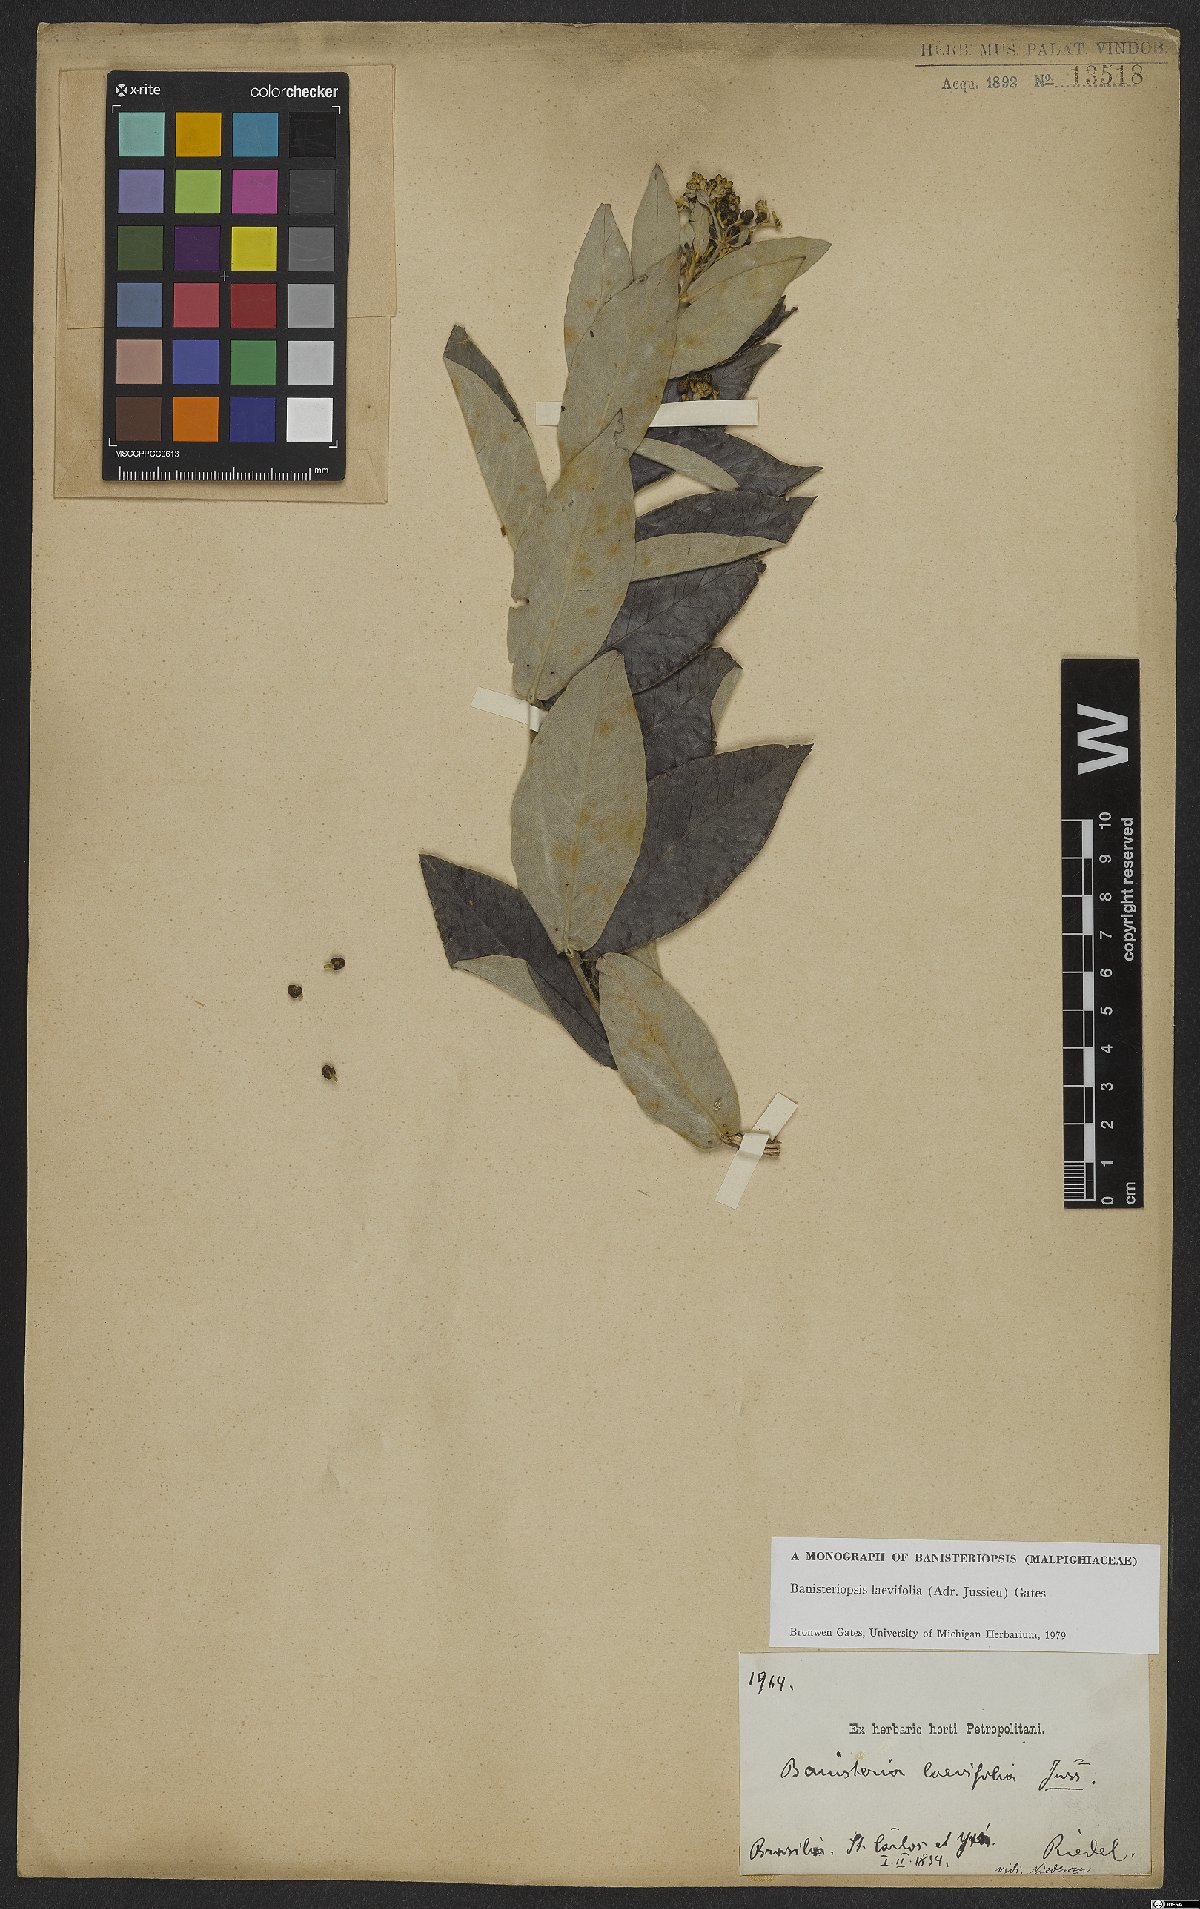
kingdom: Plantae
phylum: Tracheophyta
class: Magnoliopsida
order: Malpighiales
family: Malpighiaceae
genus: Banisteriopsis
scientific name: Banisteriopsis laevifolia
